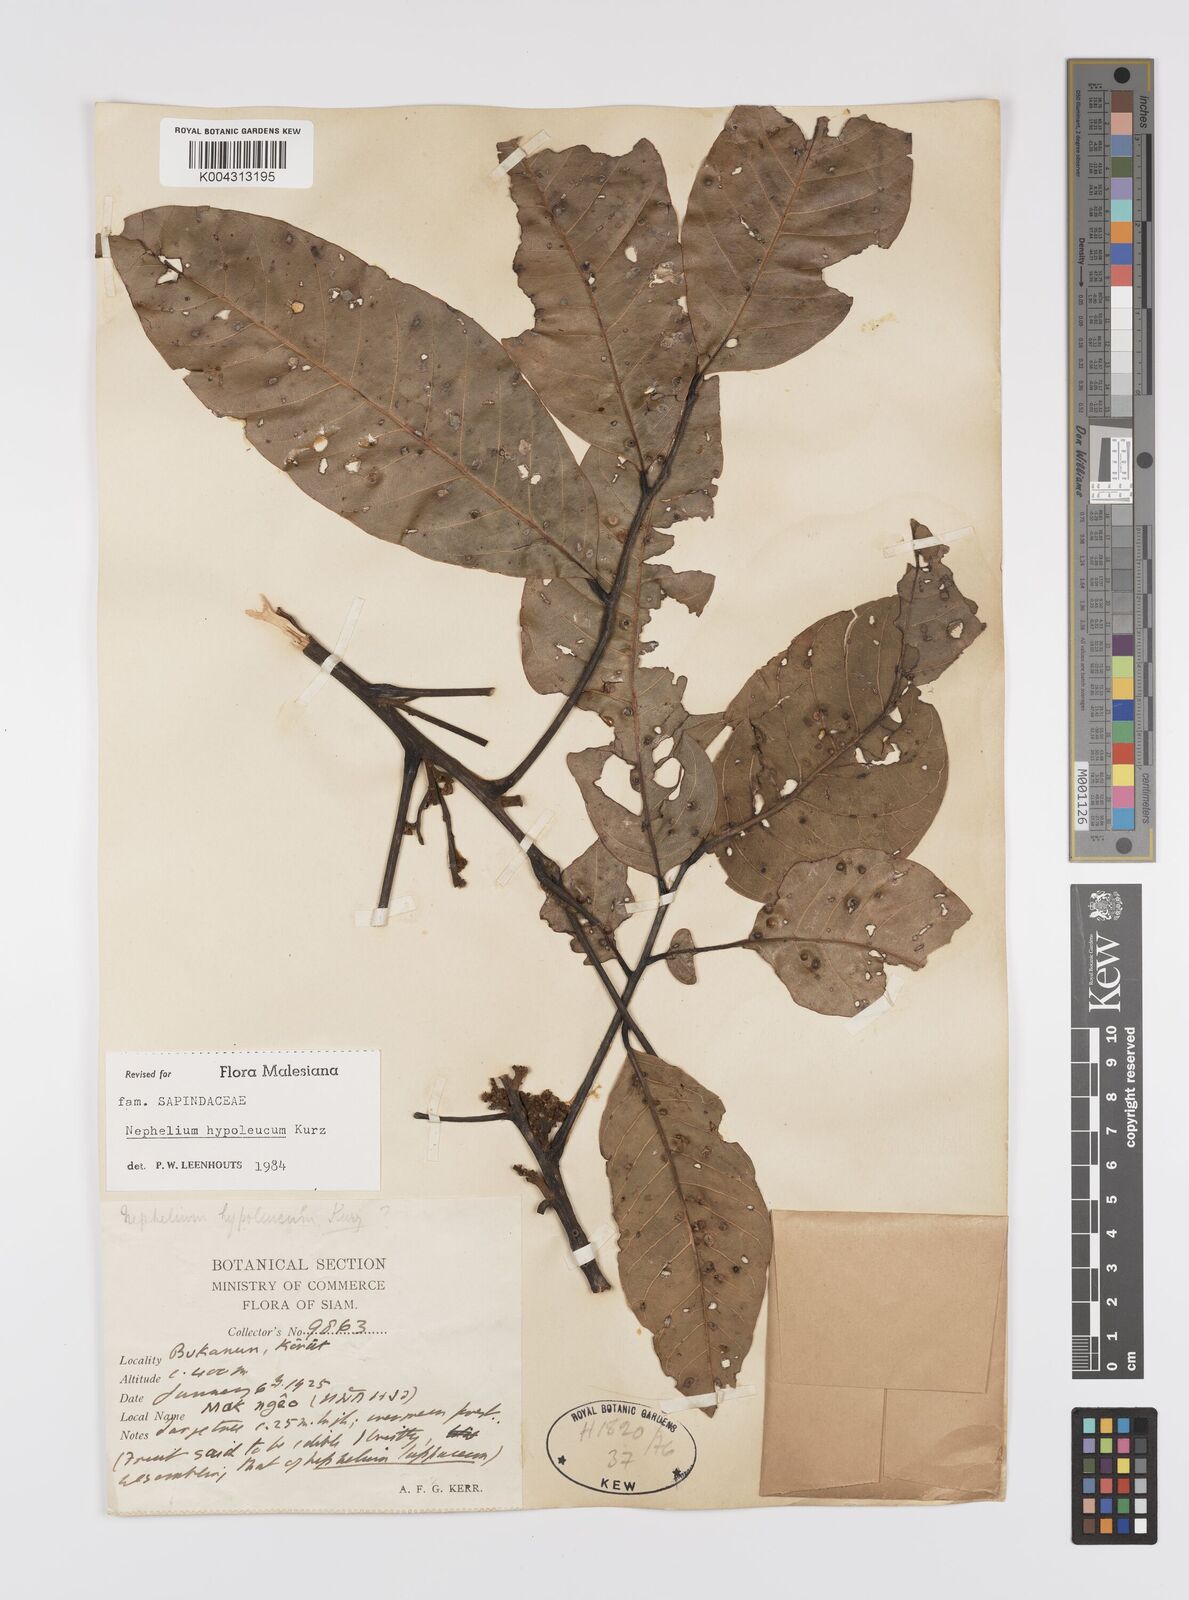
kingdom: Plantae
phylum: Tracheophyta
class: Magnoliopsida
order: Sapindales
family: Sapindaceae
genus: Nephelium
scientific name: Nephelium hypoleucum
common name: Korlan
